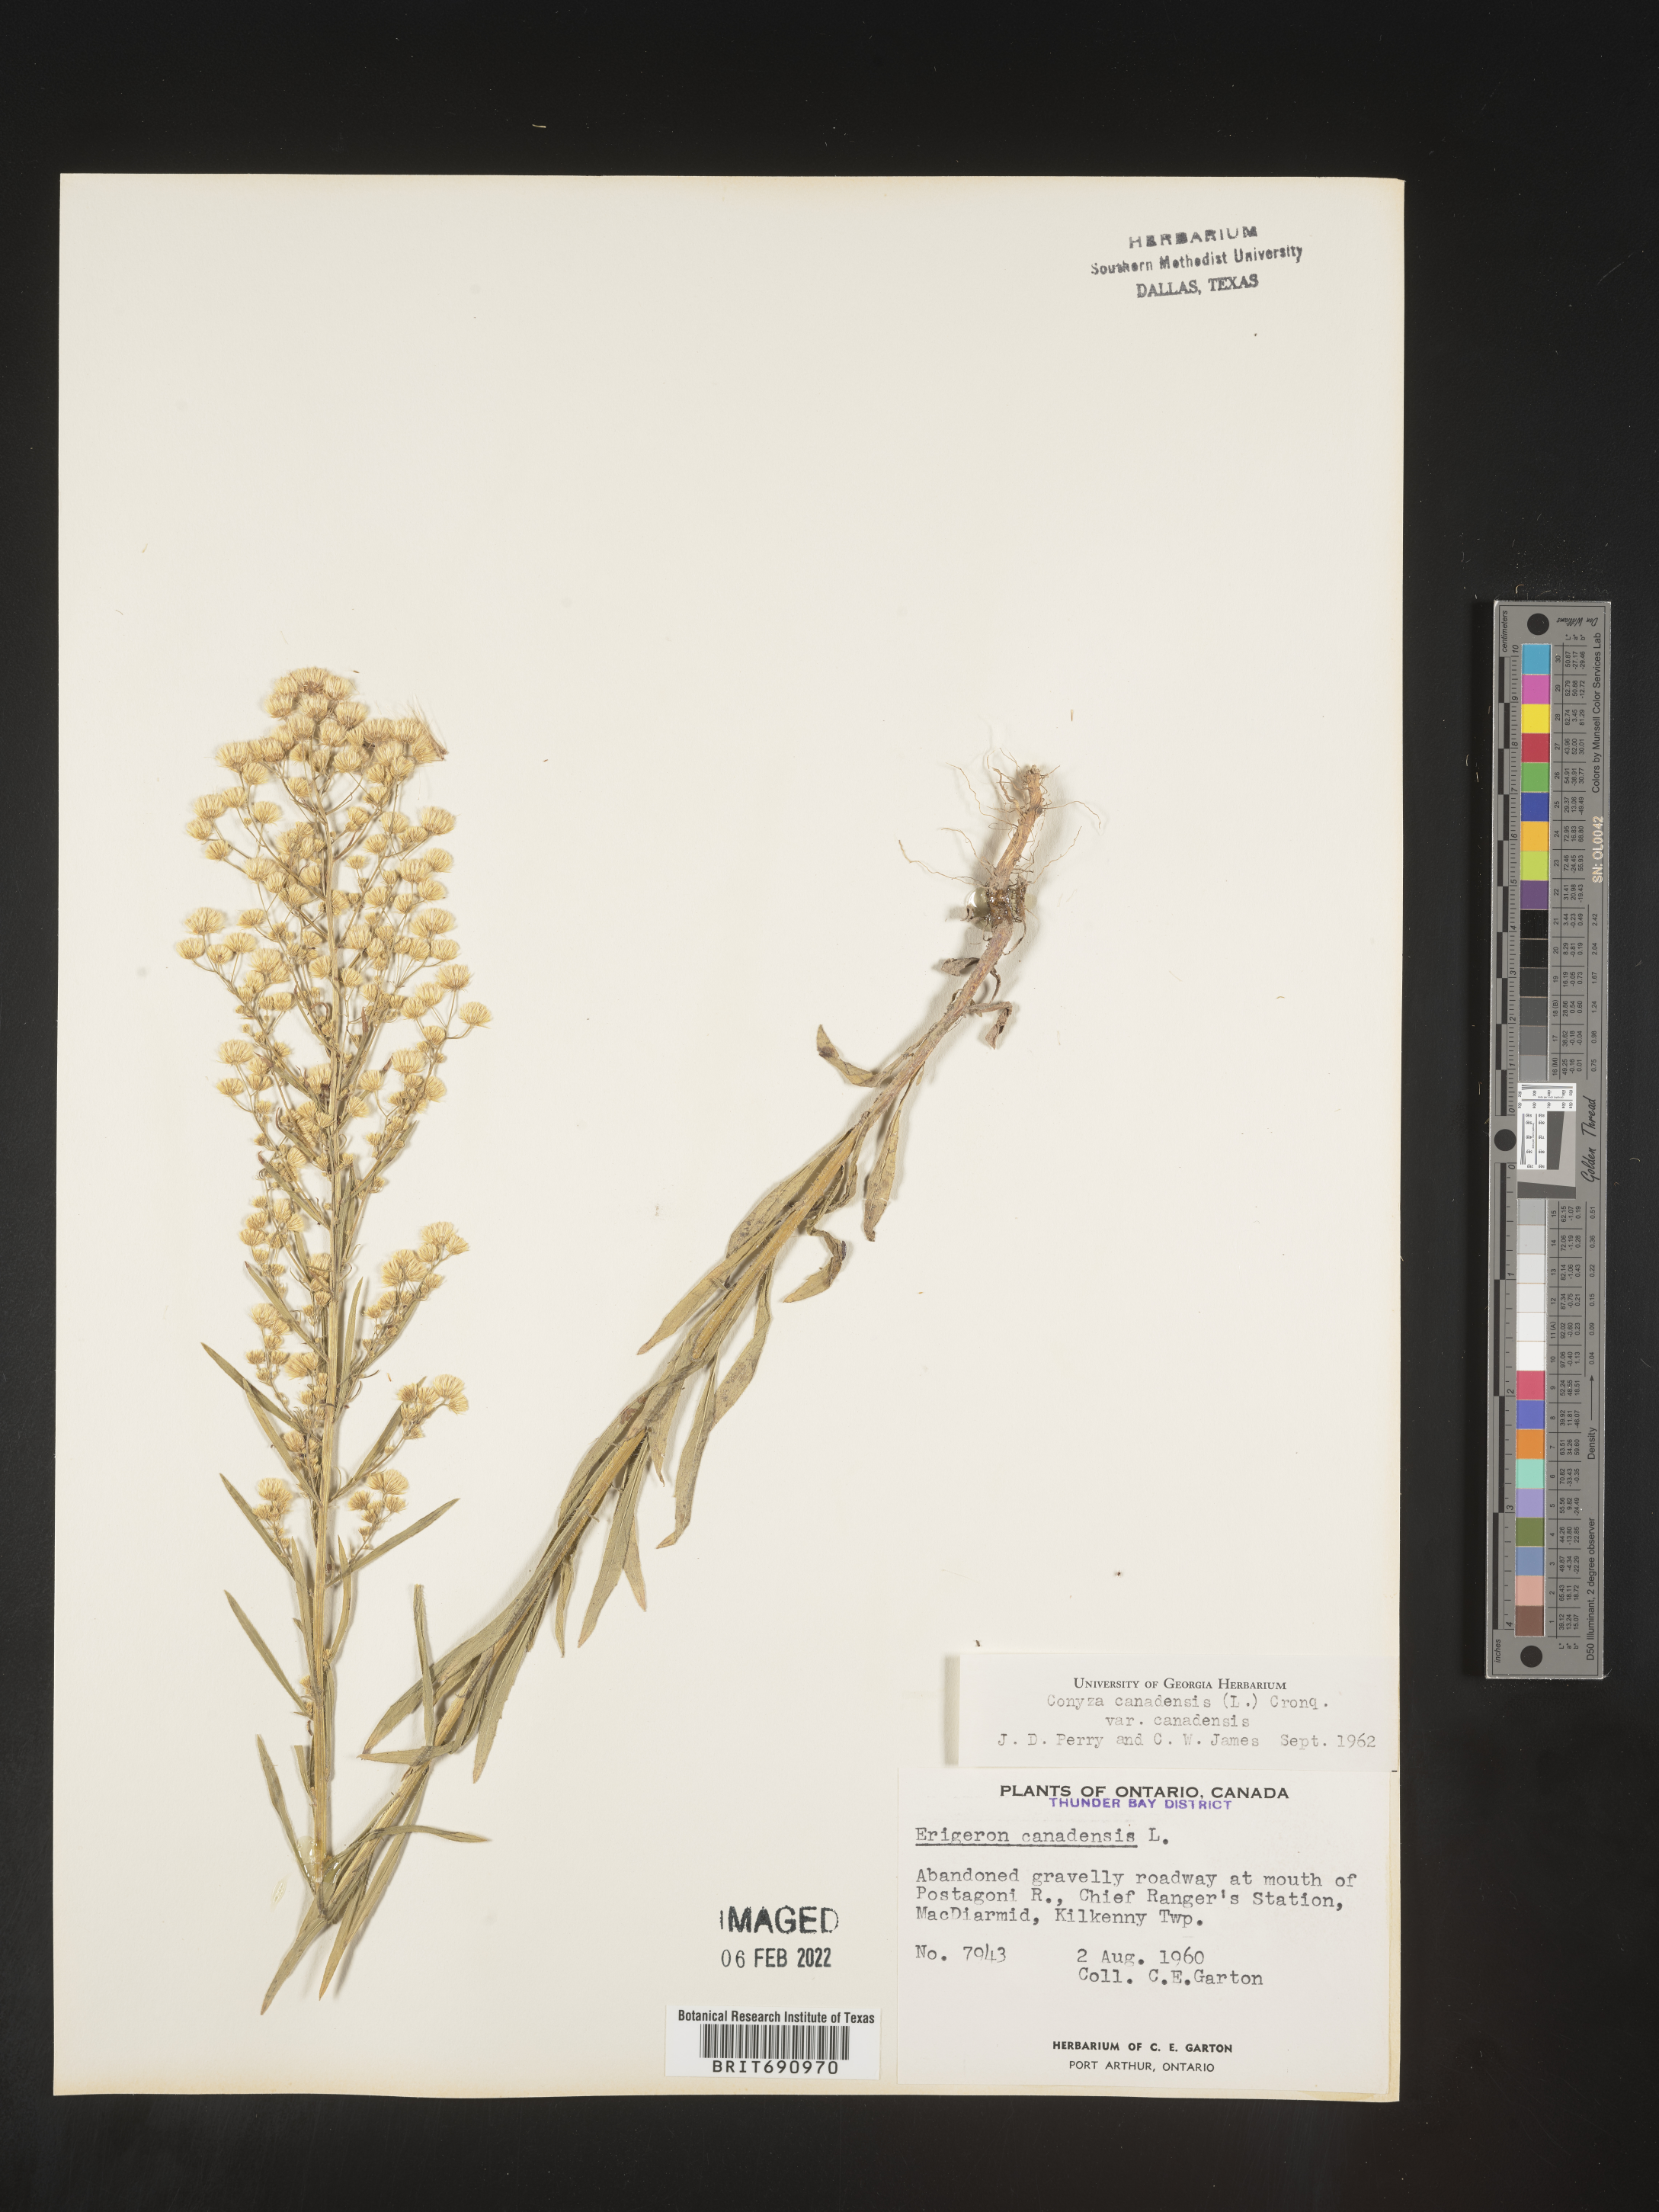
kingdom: Plantae
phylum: Tracheophyta
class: Magnoliopsida
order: Asterales
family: Asteraceae
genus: Erigeron
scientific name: Erigeron canadensis
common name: Canadian fleabane
